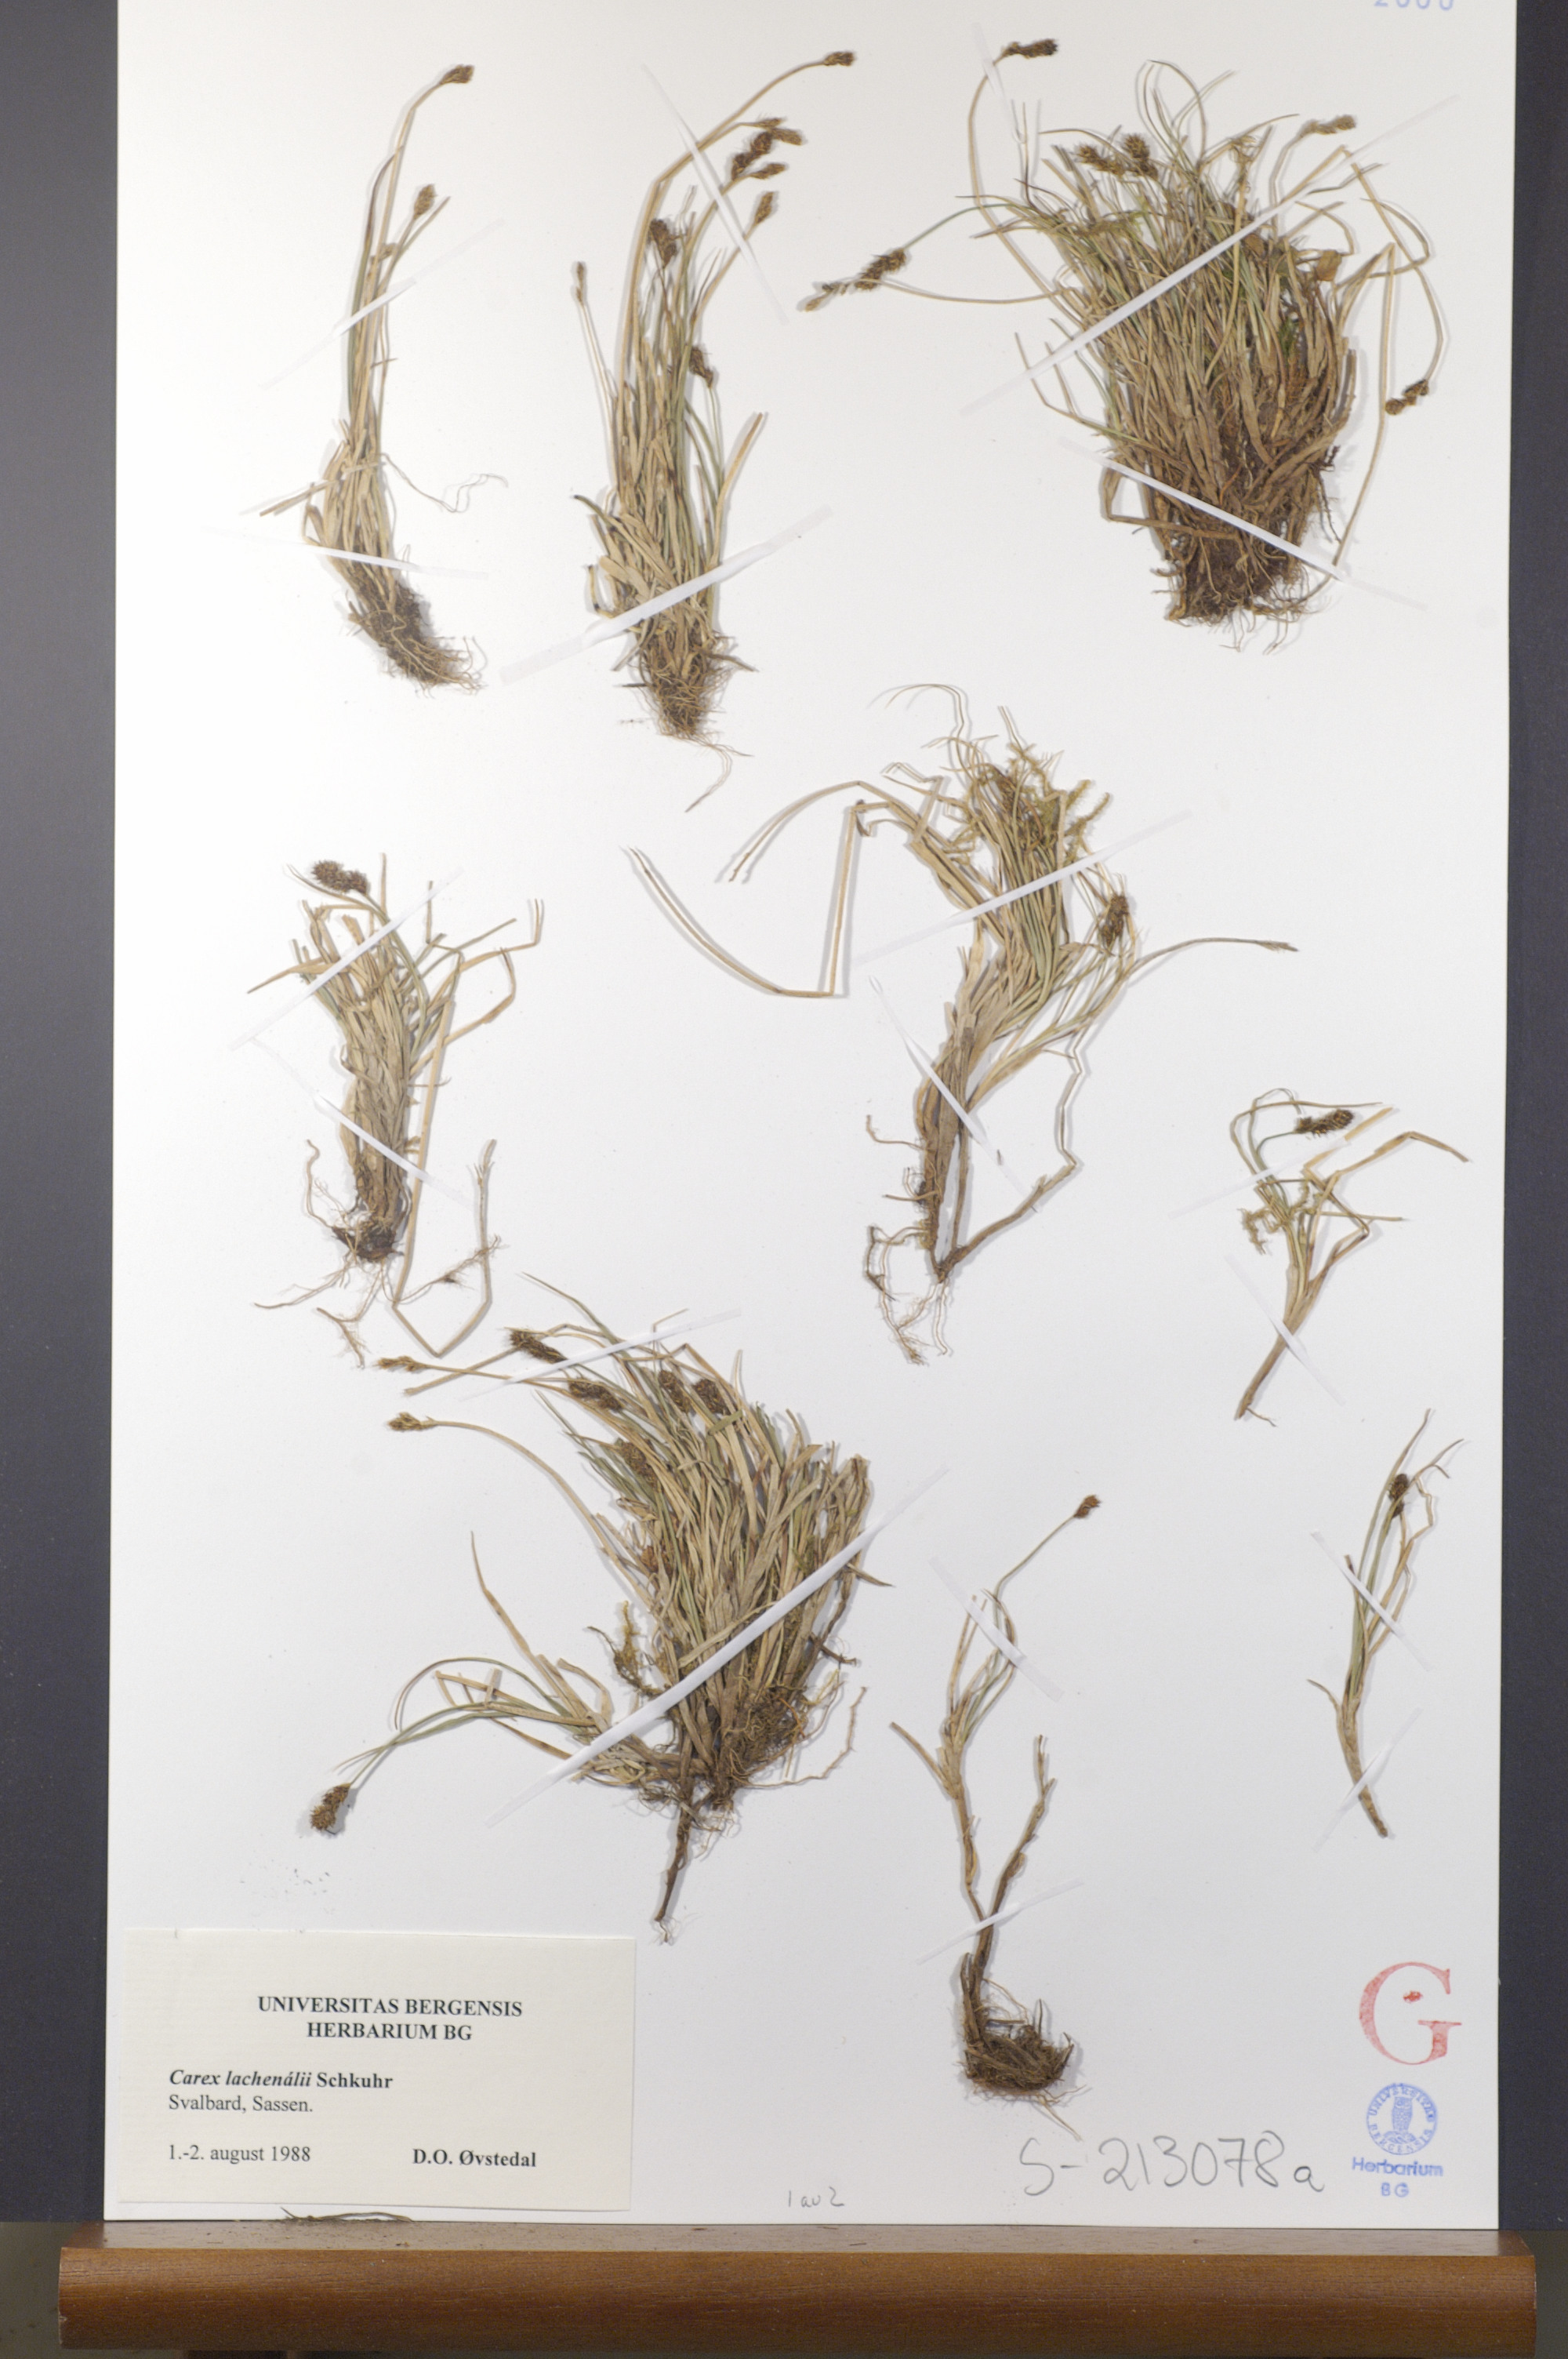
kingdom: Plantae
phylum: Tracheophyta
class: Liliopsida
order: Poales
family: Cyperaceae
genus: Carex
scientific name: Carex lachenalii
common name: Hare's-foot sedge
